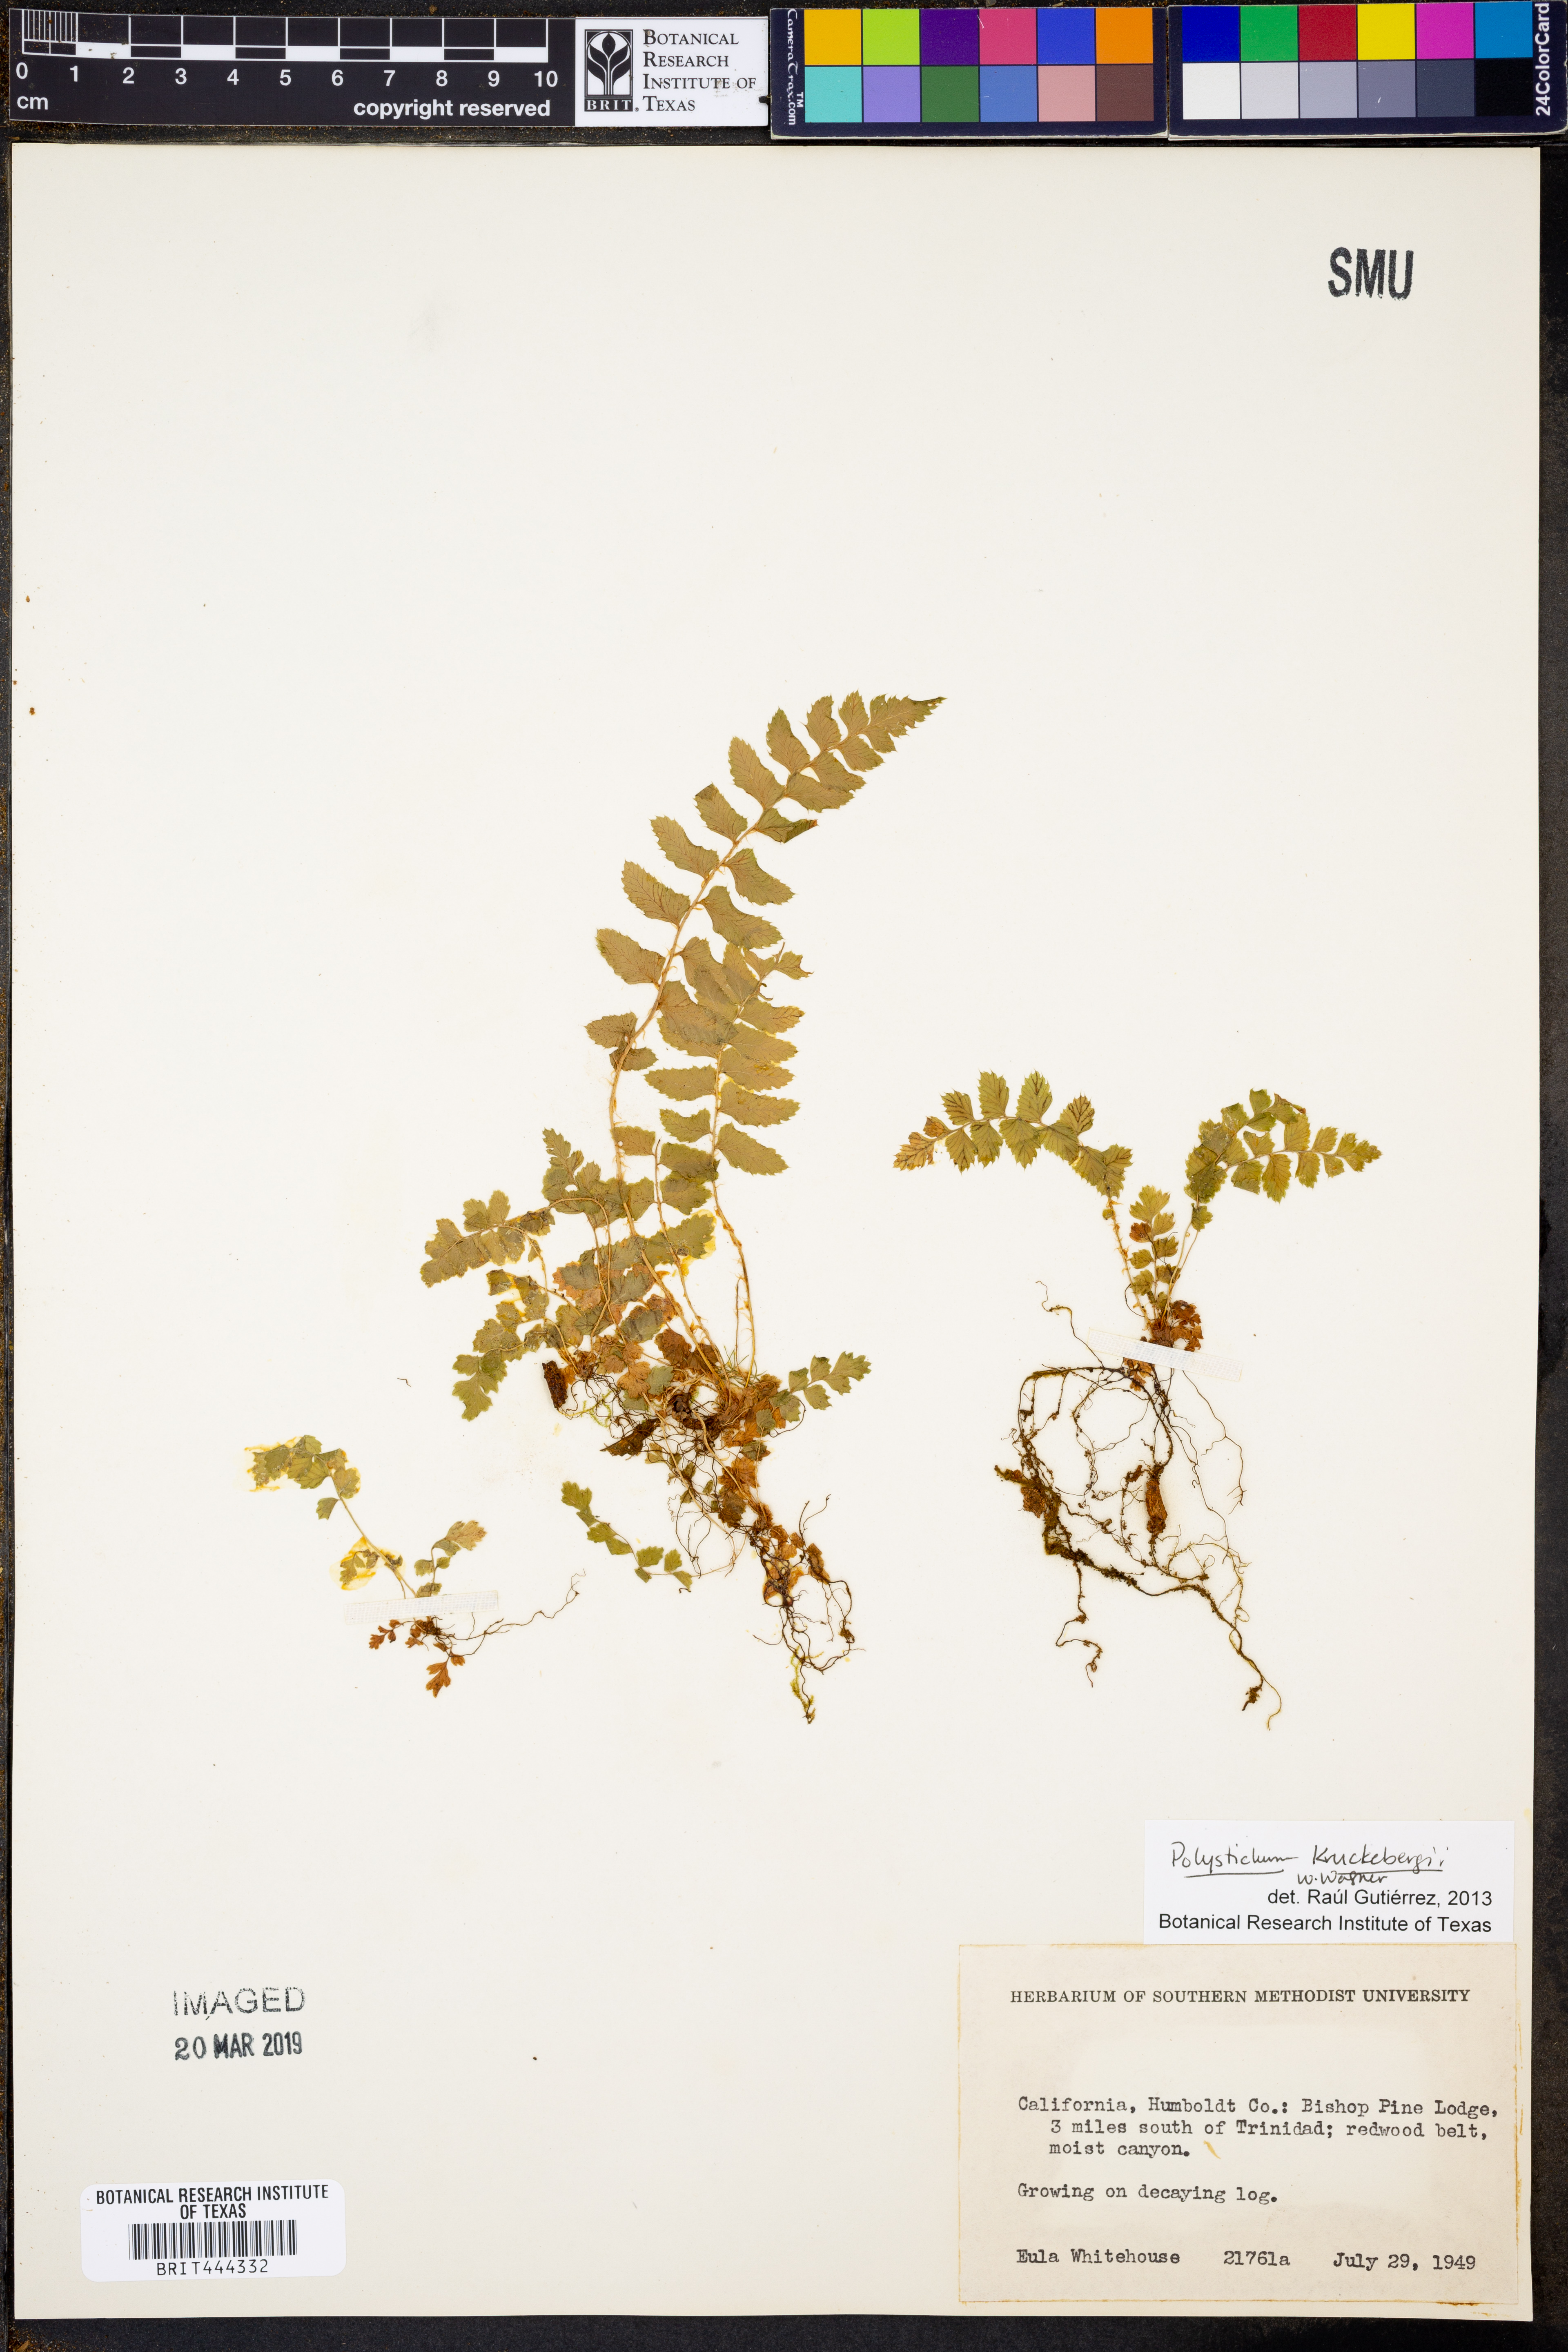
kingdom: Plantae
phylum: Tracheophyta
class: Polypodiopsida
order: Polypodiales
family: Dryopteridaceae
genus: Polystichum
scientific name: Polystichum kruckebergii
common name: Kruckeberg's holly fern
